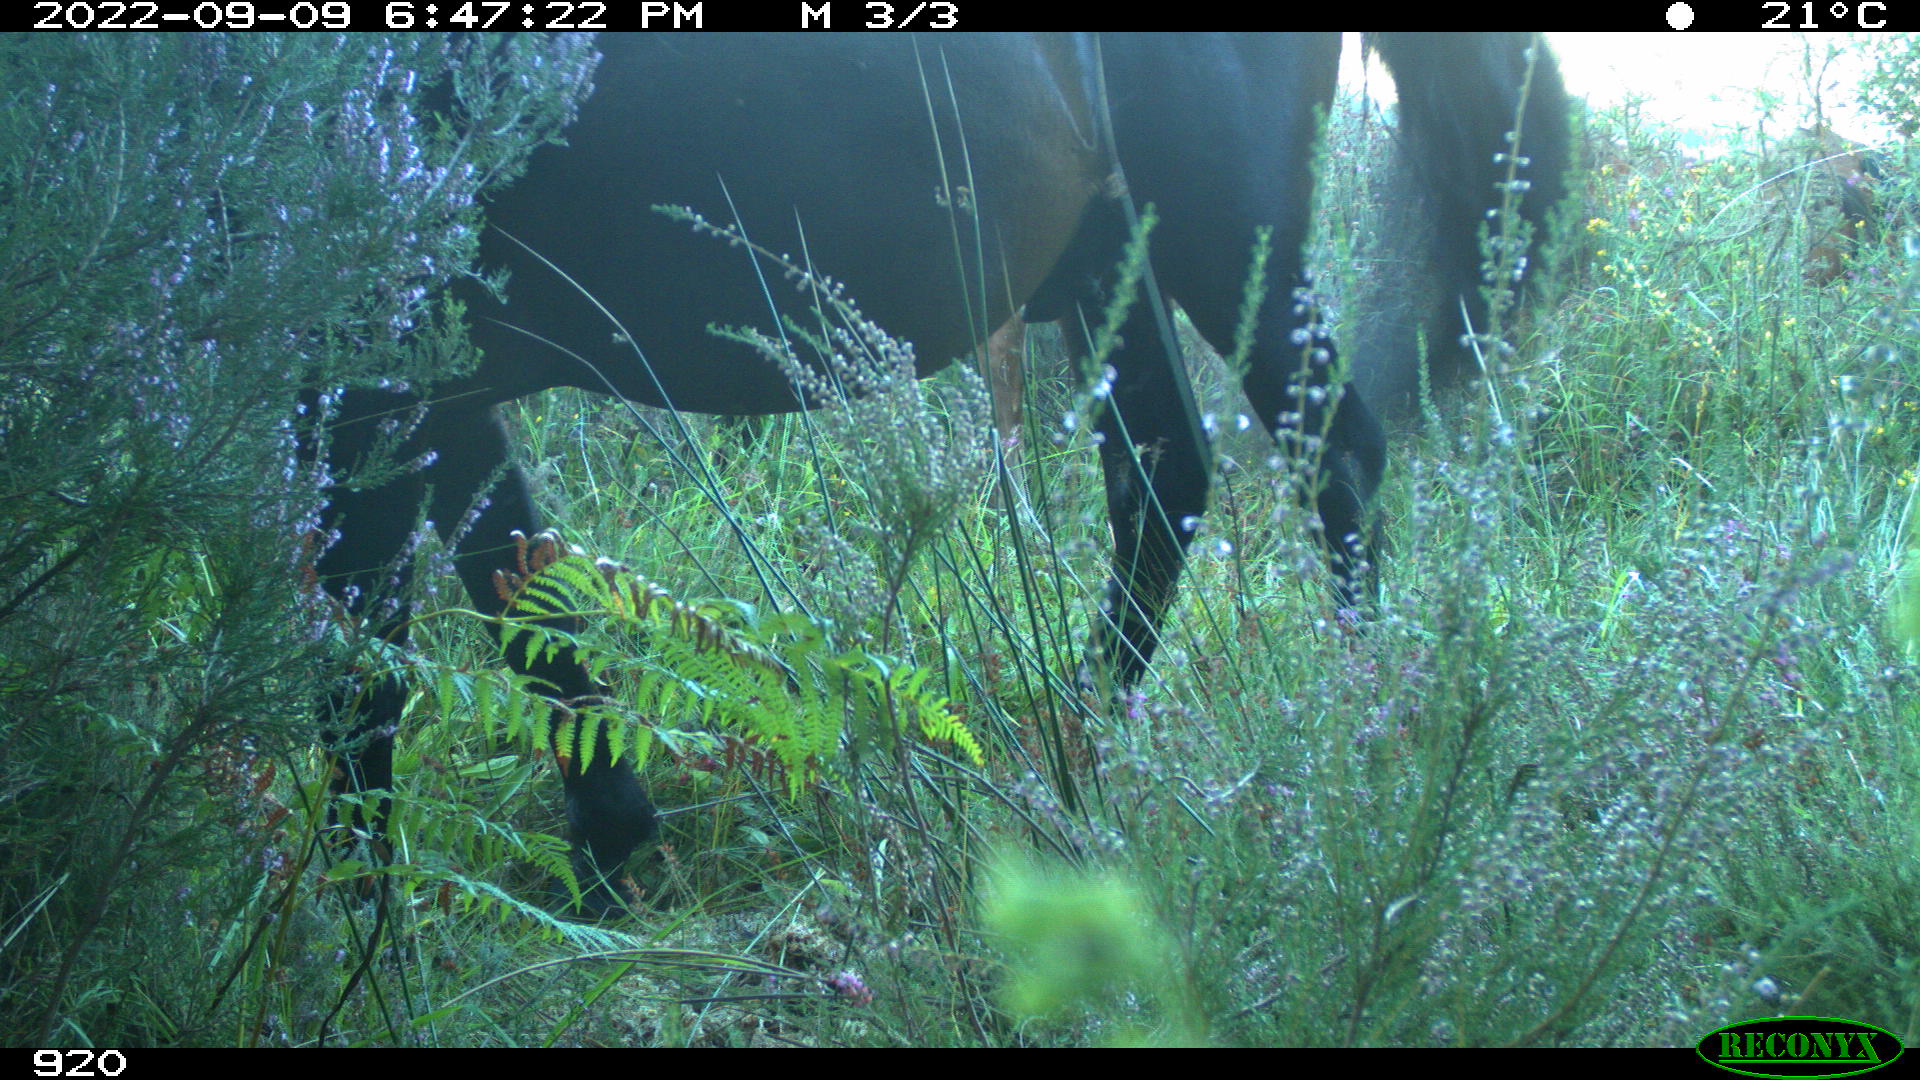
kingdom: Animalia
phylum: Chordata
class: Mammalia
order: Perissodactyla
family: Equidae
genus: Equus
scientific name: Equus caballus
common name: Horse
